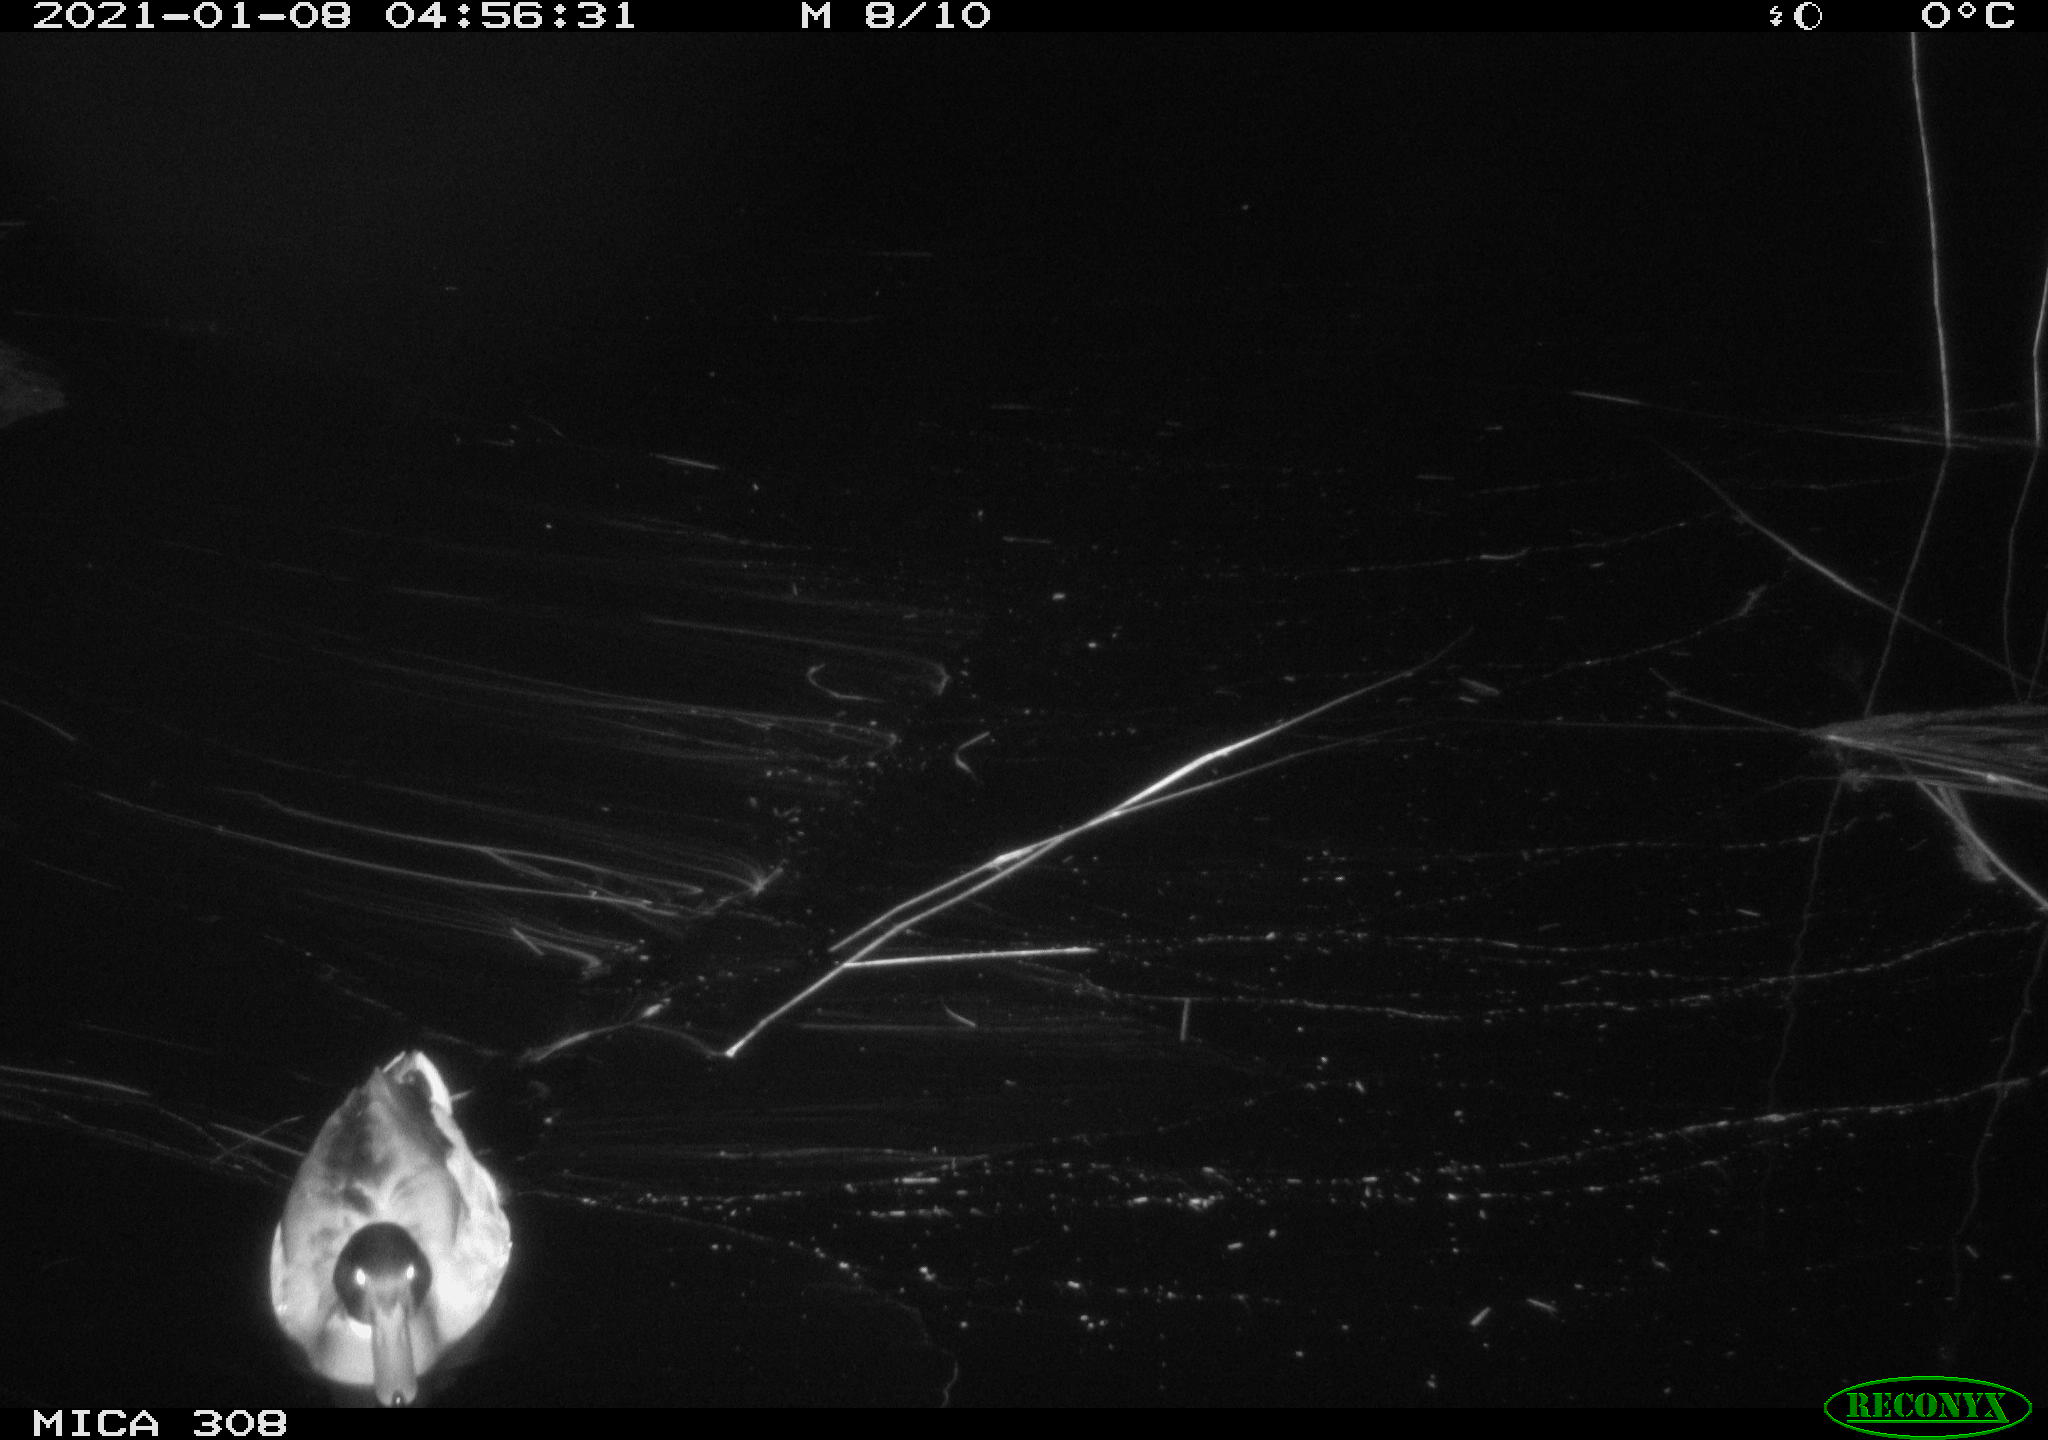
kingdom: Animalia
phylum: Chordata
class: Aves
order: Anseriformes
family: Anatidae
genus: Anas
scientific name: Anas platyrhynchos
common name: Mallard
